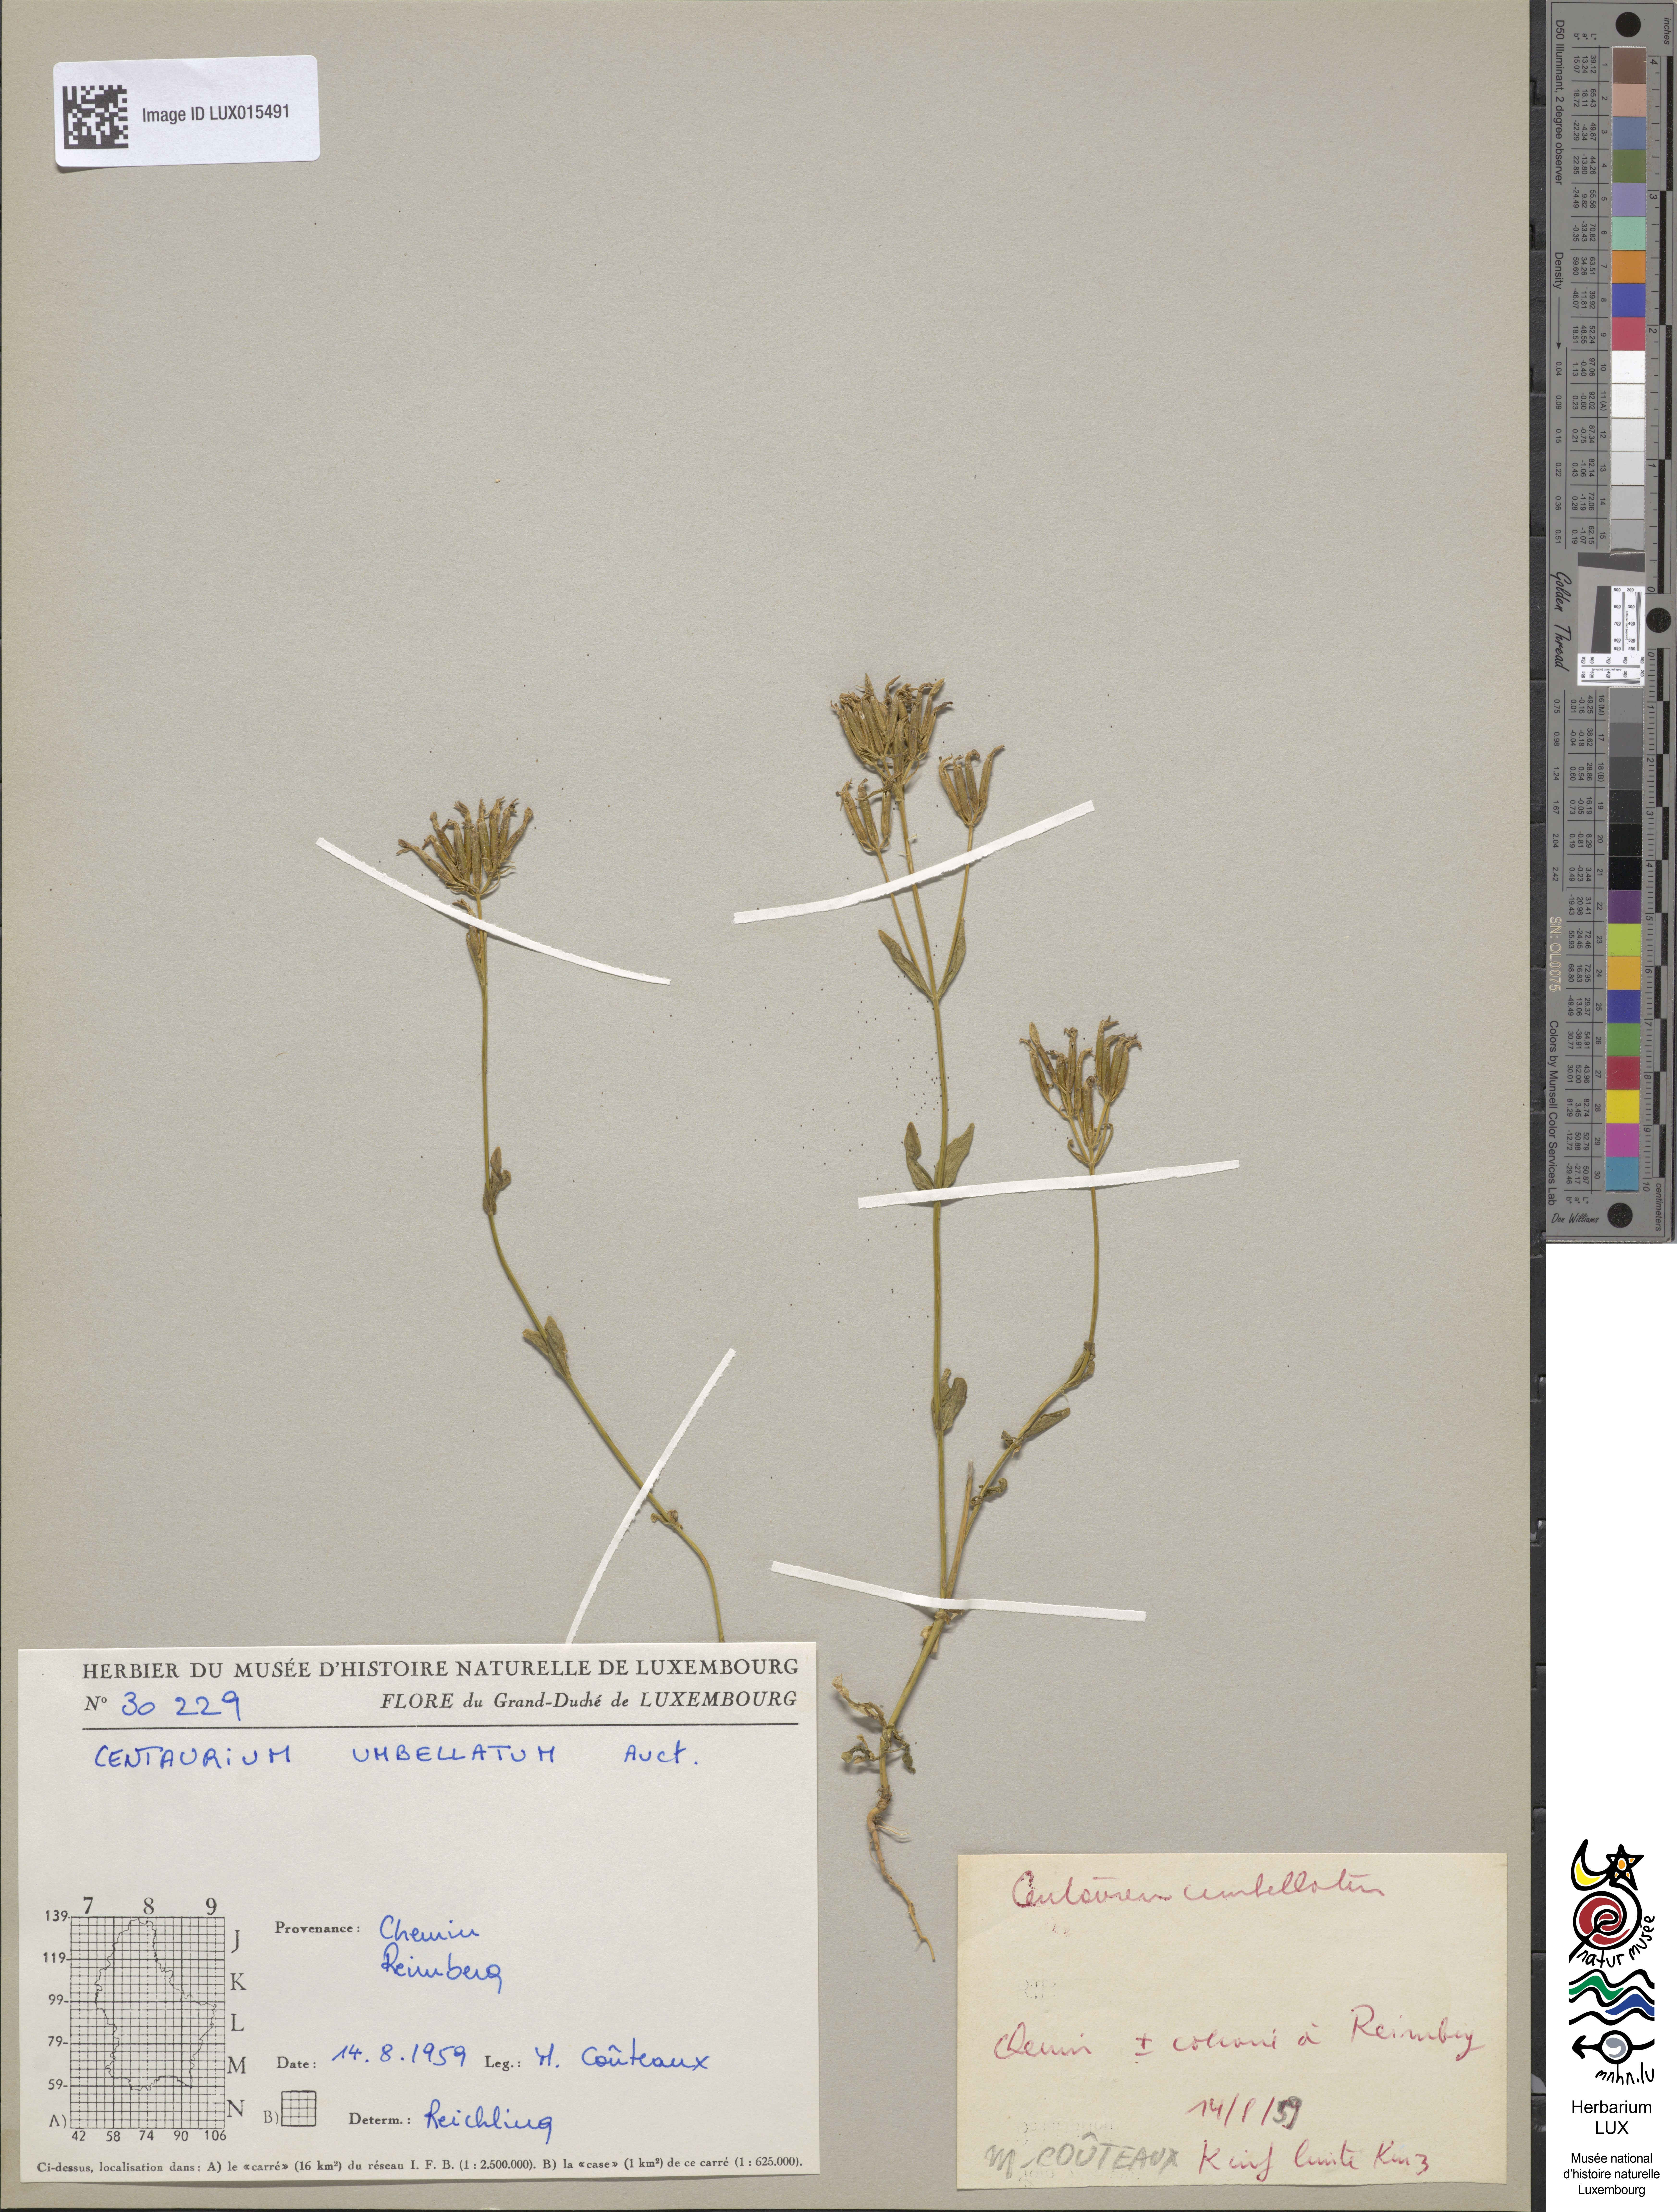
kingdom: Plantae
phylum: Tracheophyta
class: Magnoliopsida
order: Gentianales
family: Gentianaceae
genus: Centaurium
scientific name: Centaurium erythraea
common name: Common centaury
